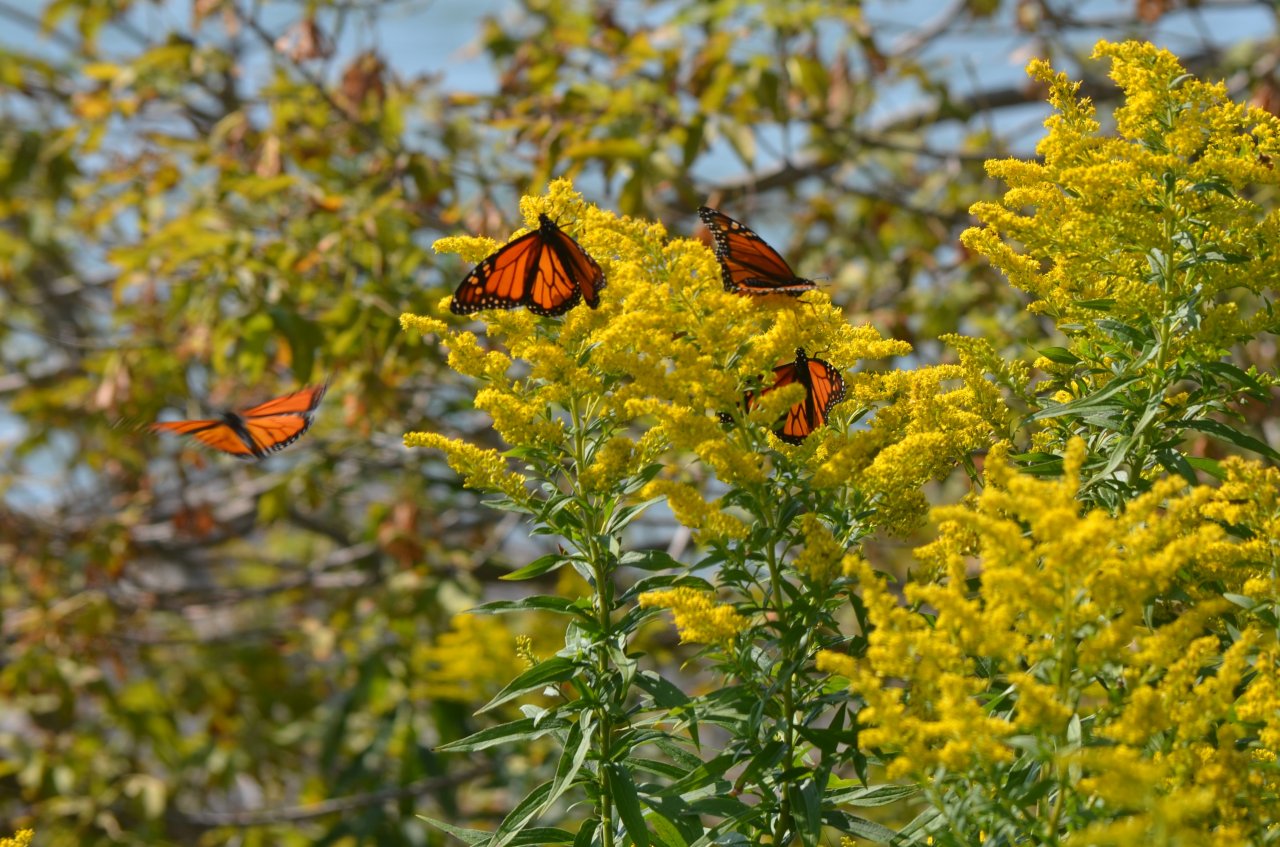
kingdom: Animalia
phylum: Arthropoda
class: Insecta
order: Lepidoptera
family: Nymphalidae
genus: Danaus
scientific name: Danaus plexippus
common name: Monarch
